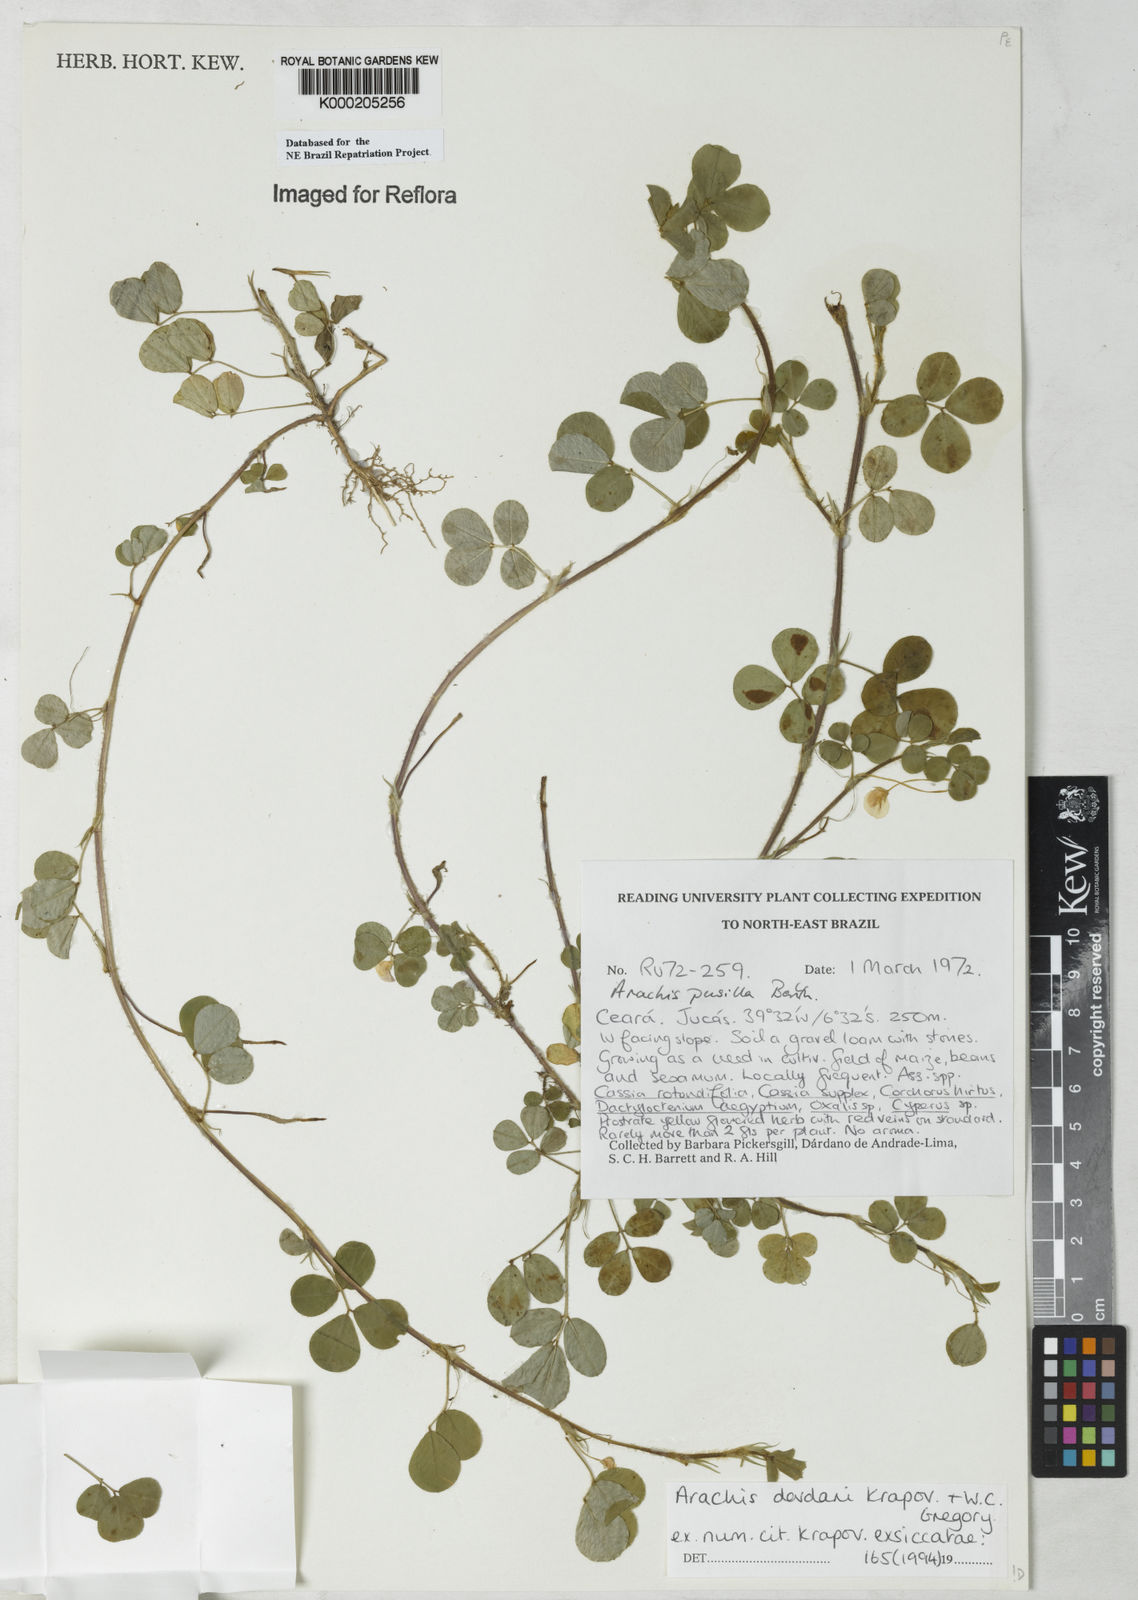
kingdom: Plantae
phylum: Tracheophyta
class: Magnoliopsida
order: Fabales
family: Fabaceae
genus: Arachis
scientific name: Arachis
